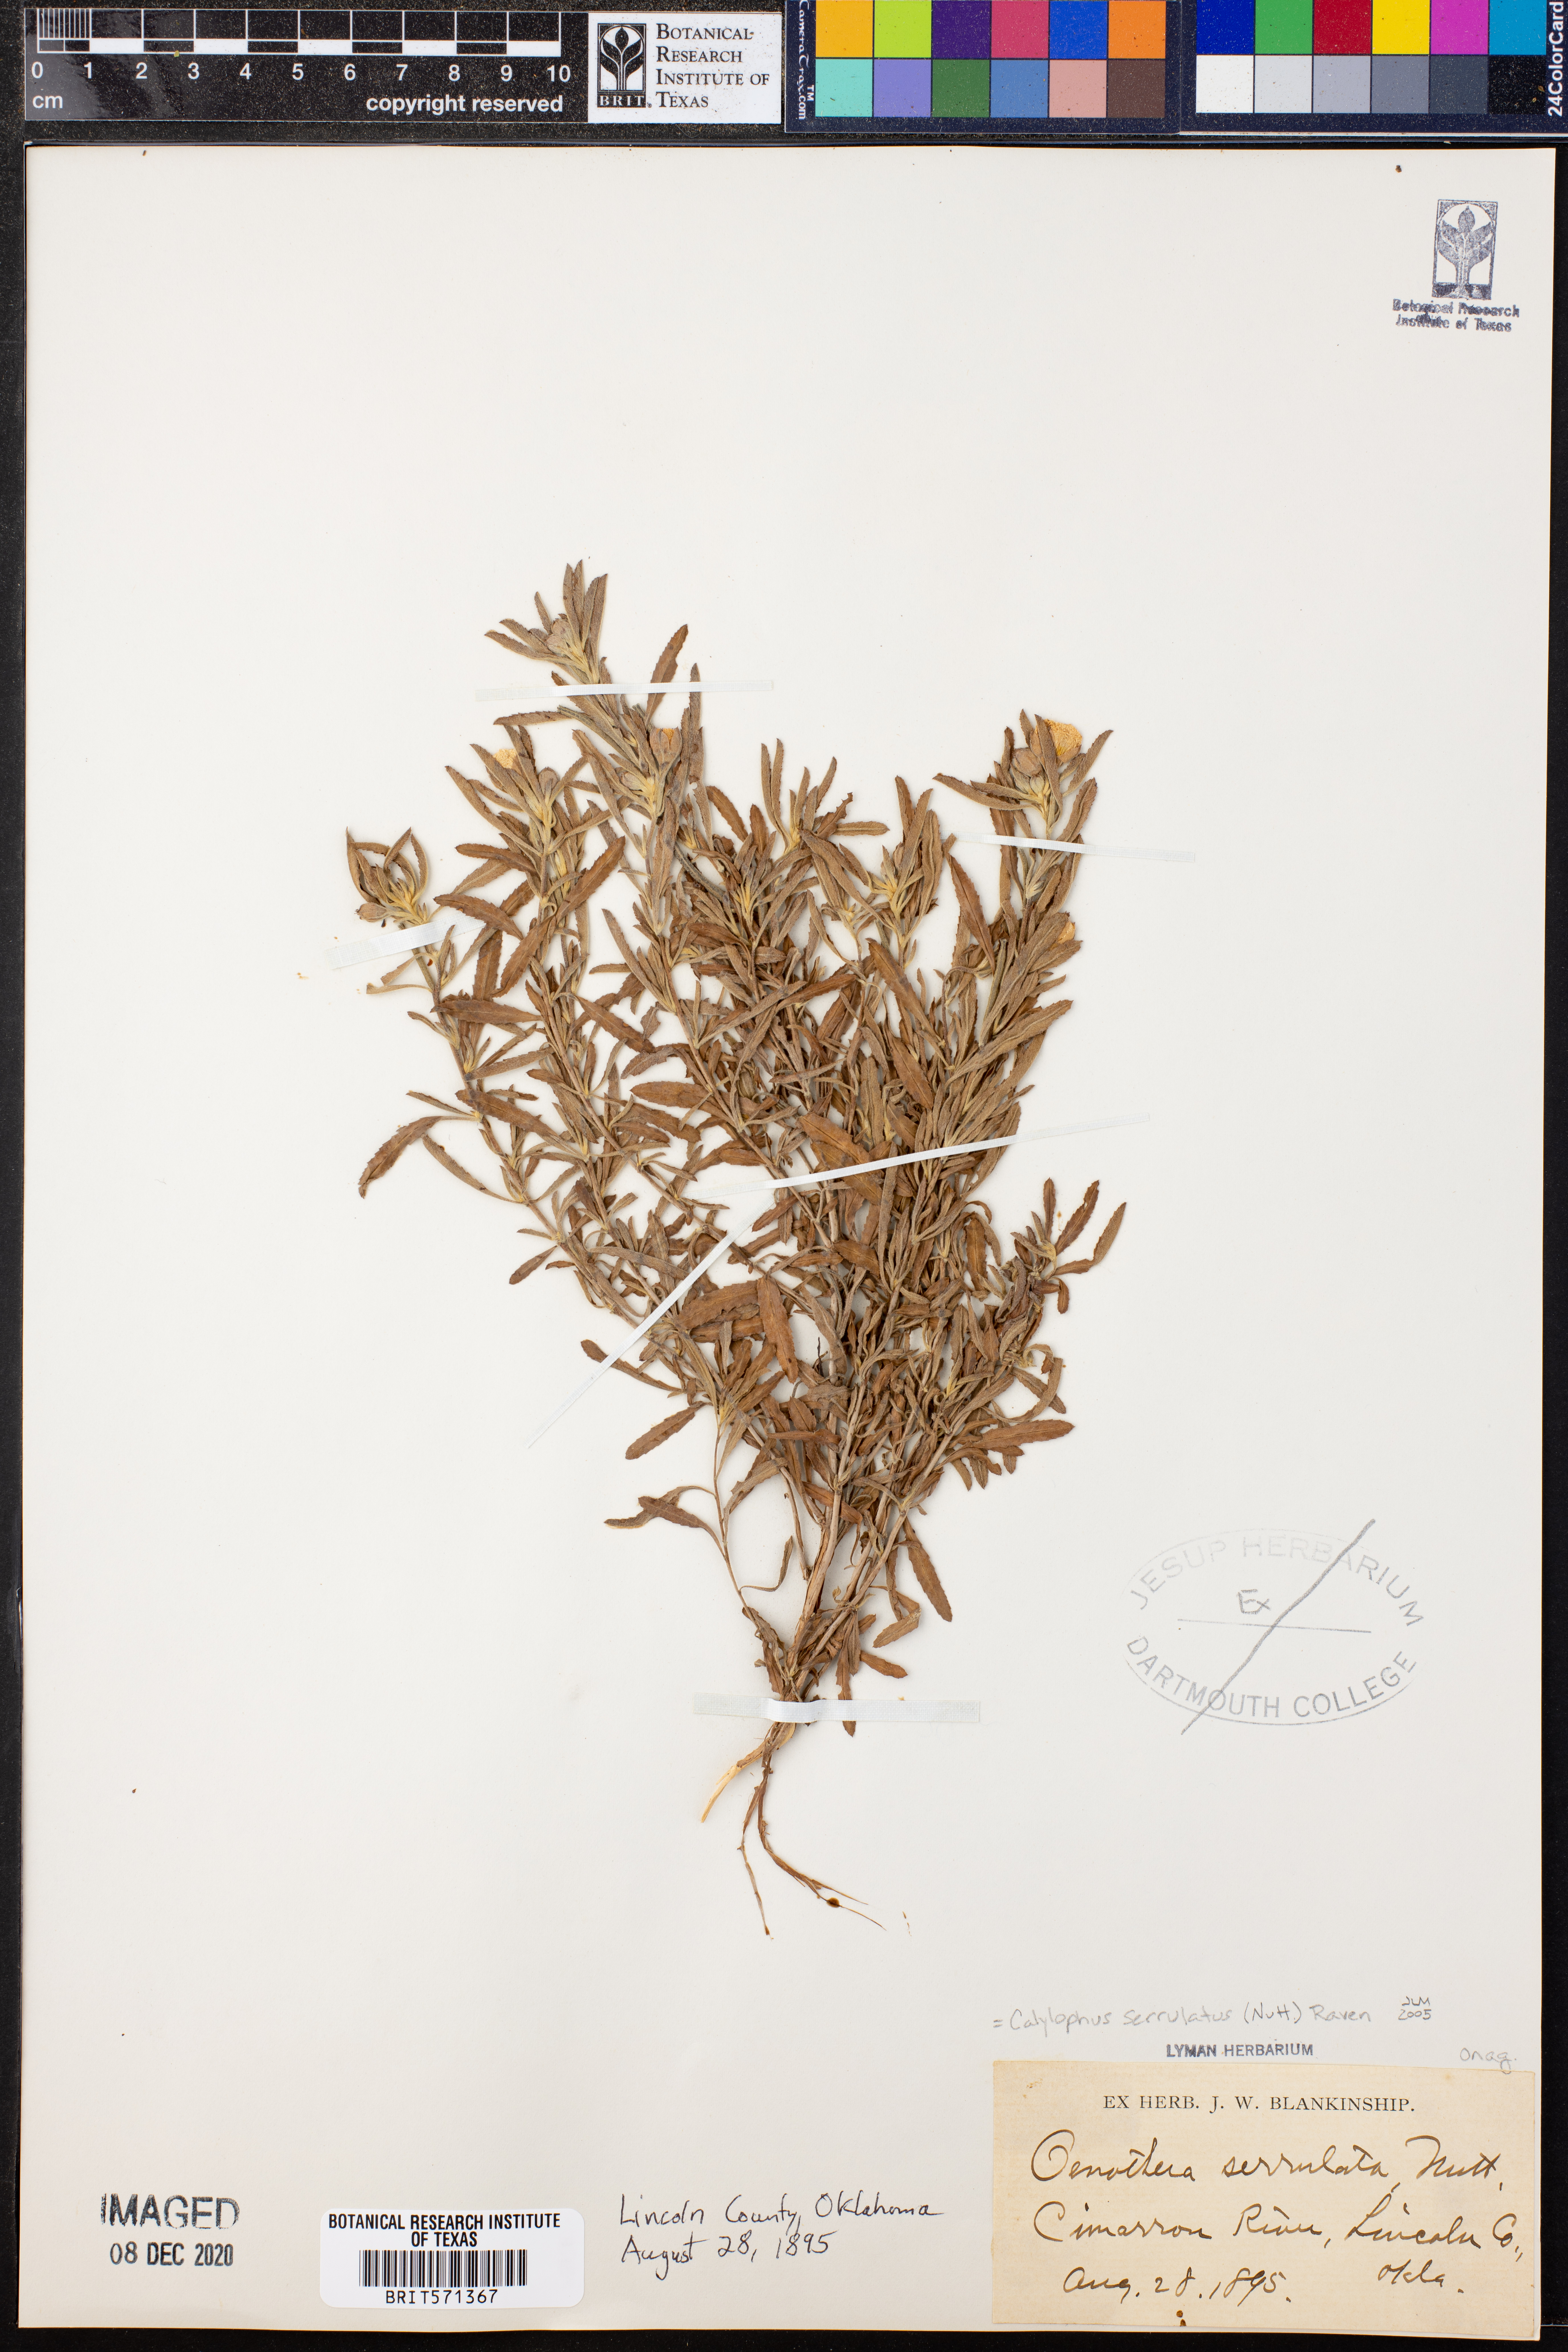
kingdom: Plantae
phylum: Tracheophyta
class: Magnoliopsida
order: Myrtales
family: Onagraceae
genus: Oenothera
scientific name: Oenothera serrulata
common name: Half-shrub calylophus
